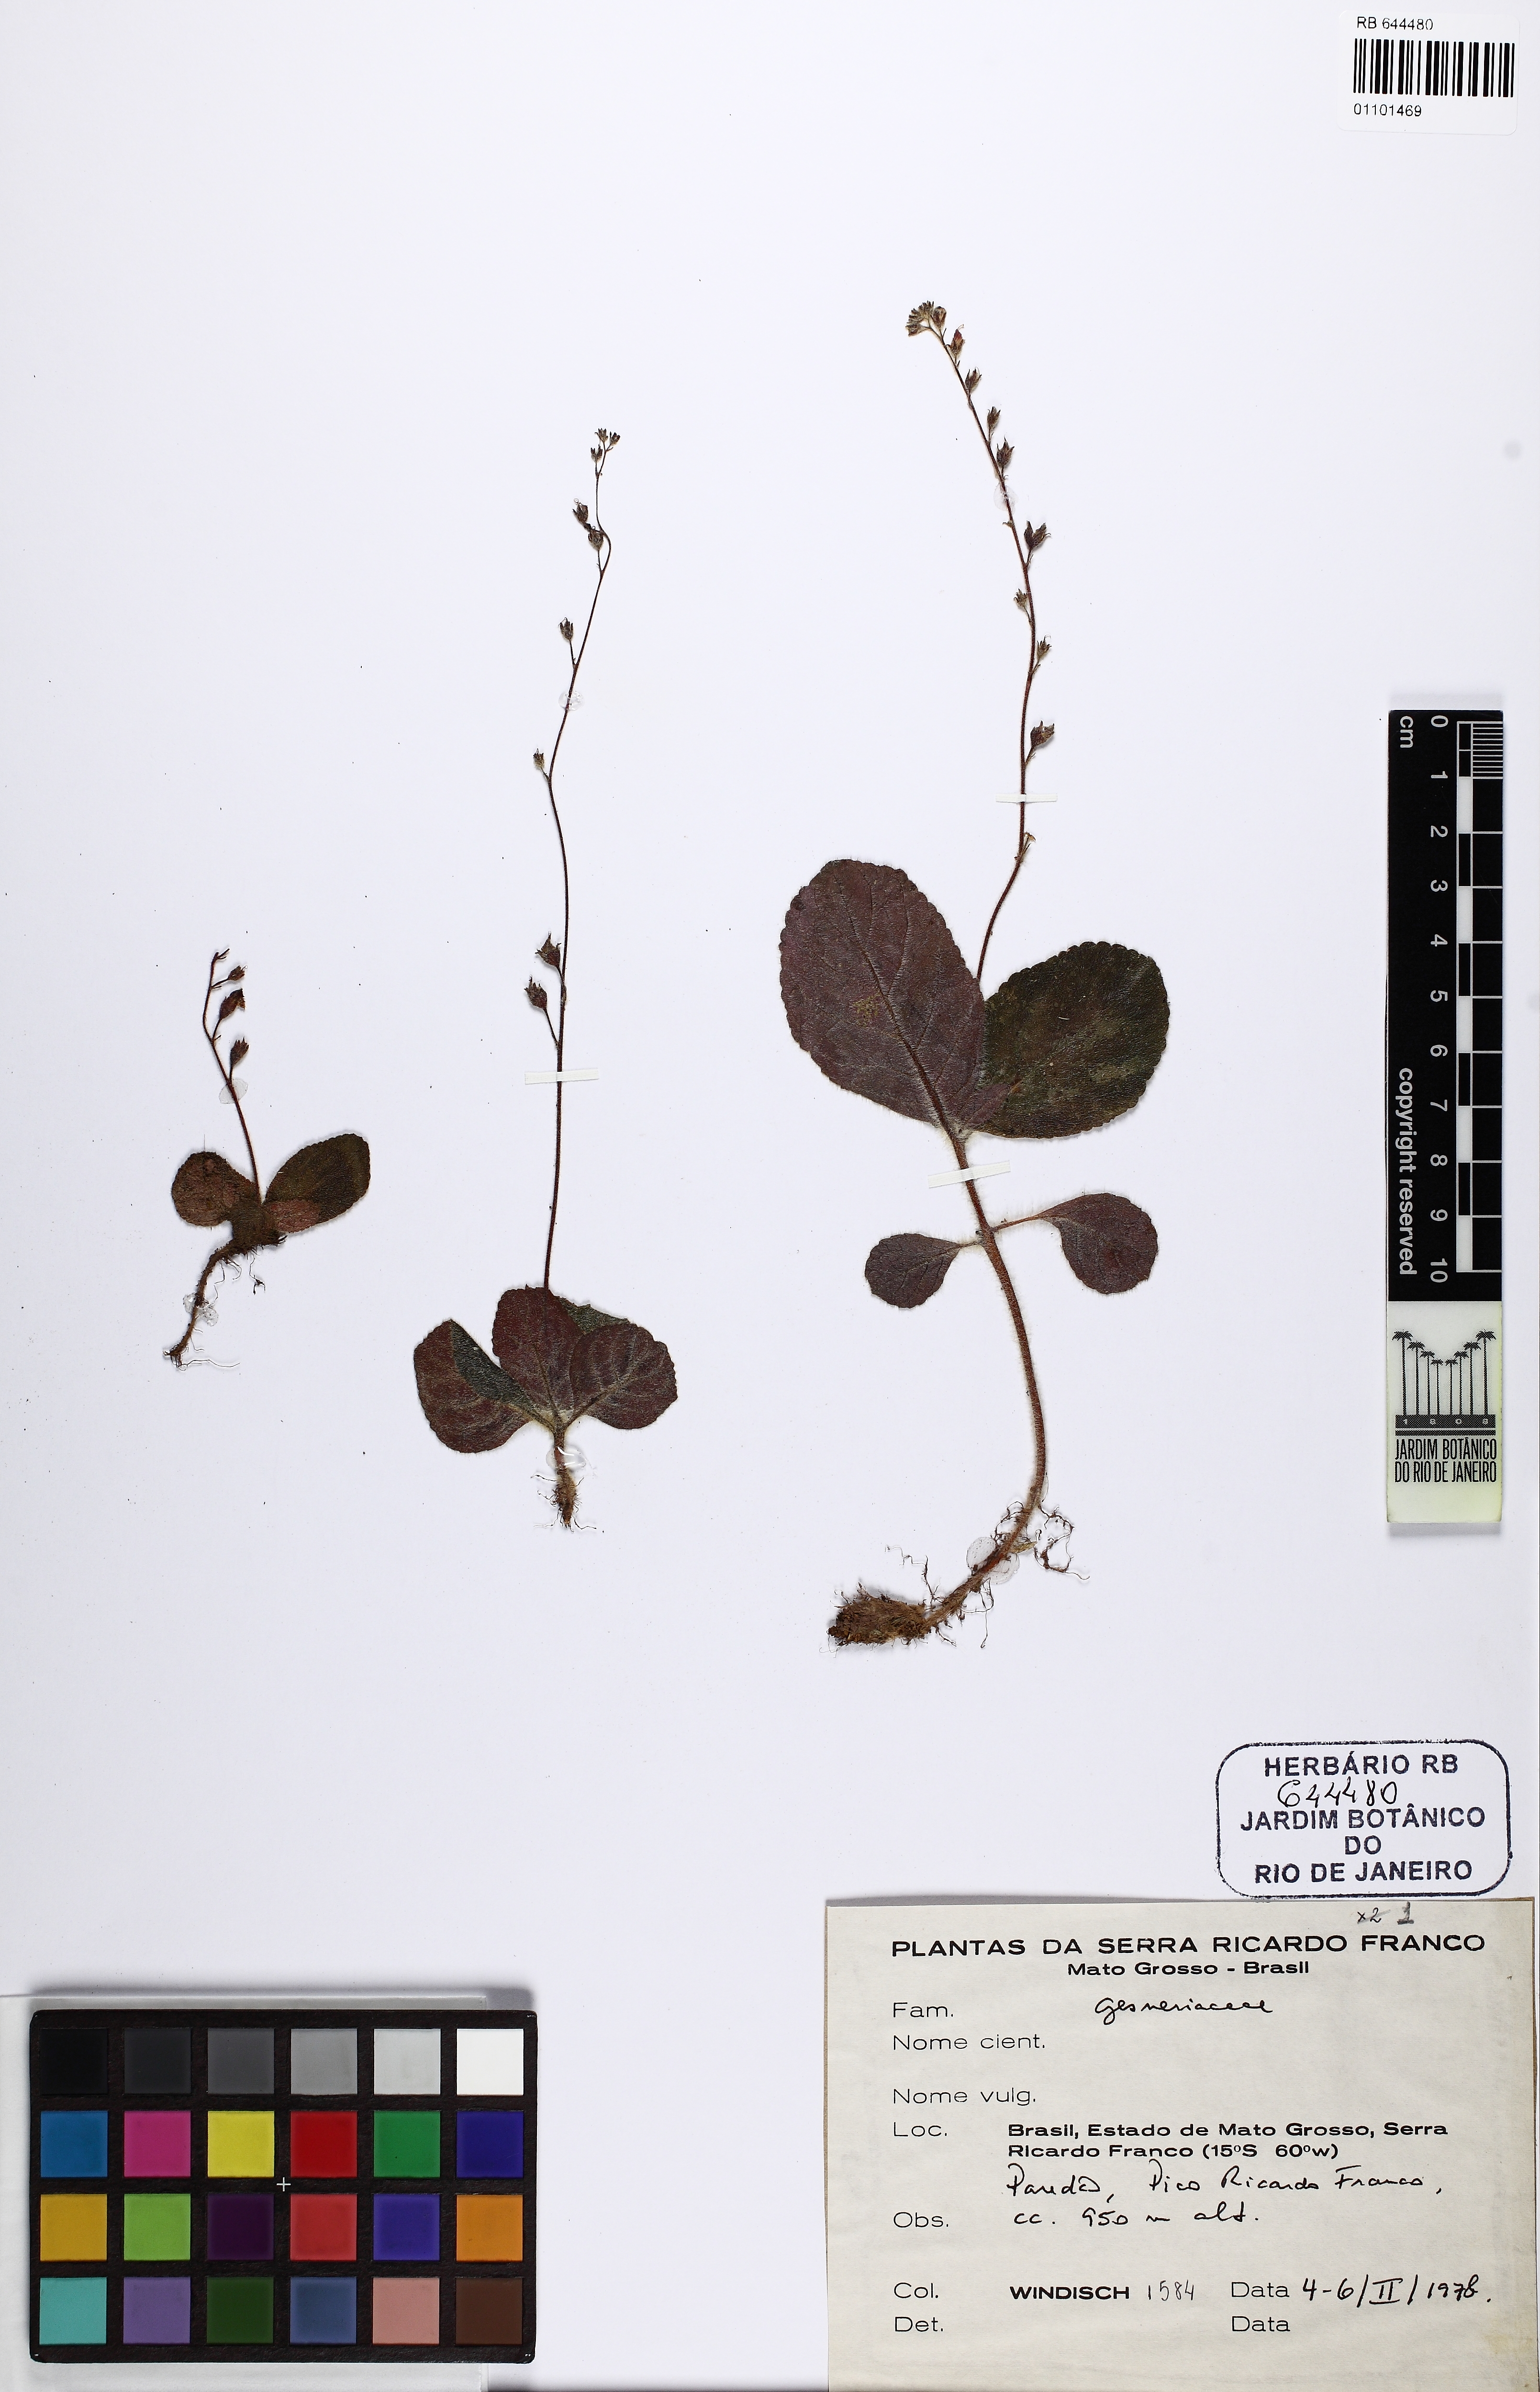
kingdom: Plantae
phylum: Tracheophyta
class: Magnoliopsida
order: Lamiales
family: Gesneriaceae
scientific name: Gesneriaceae
